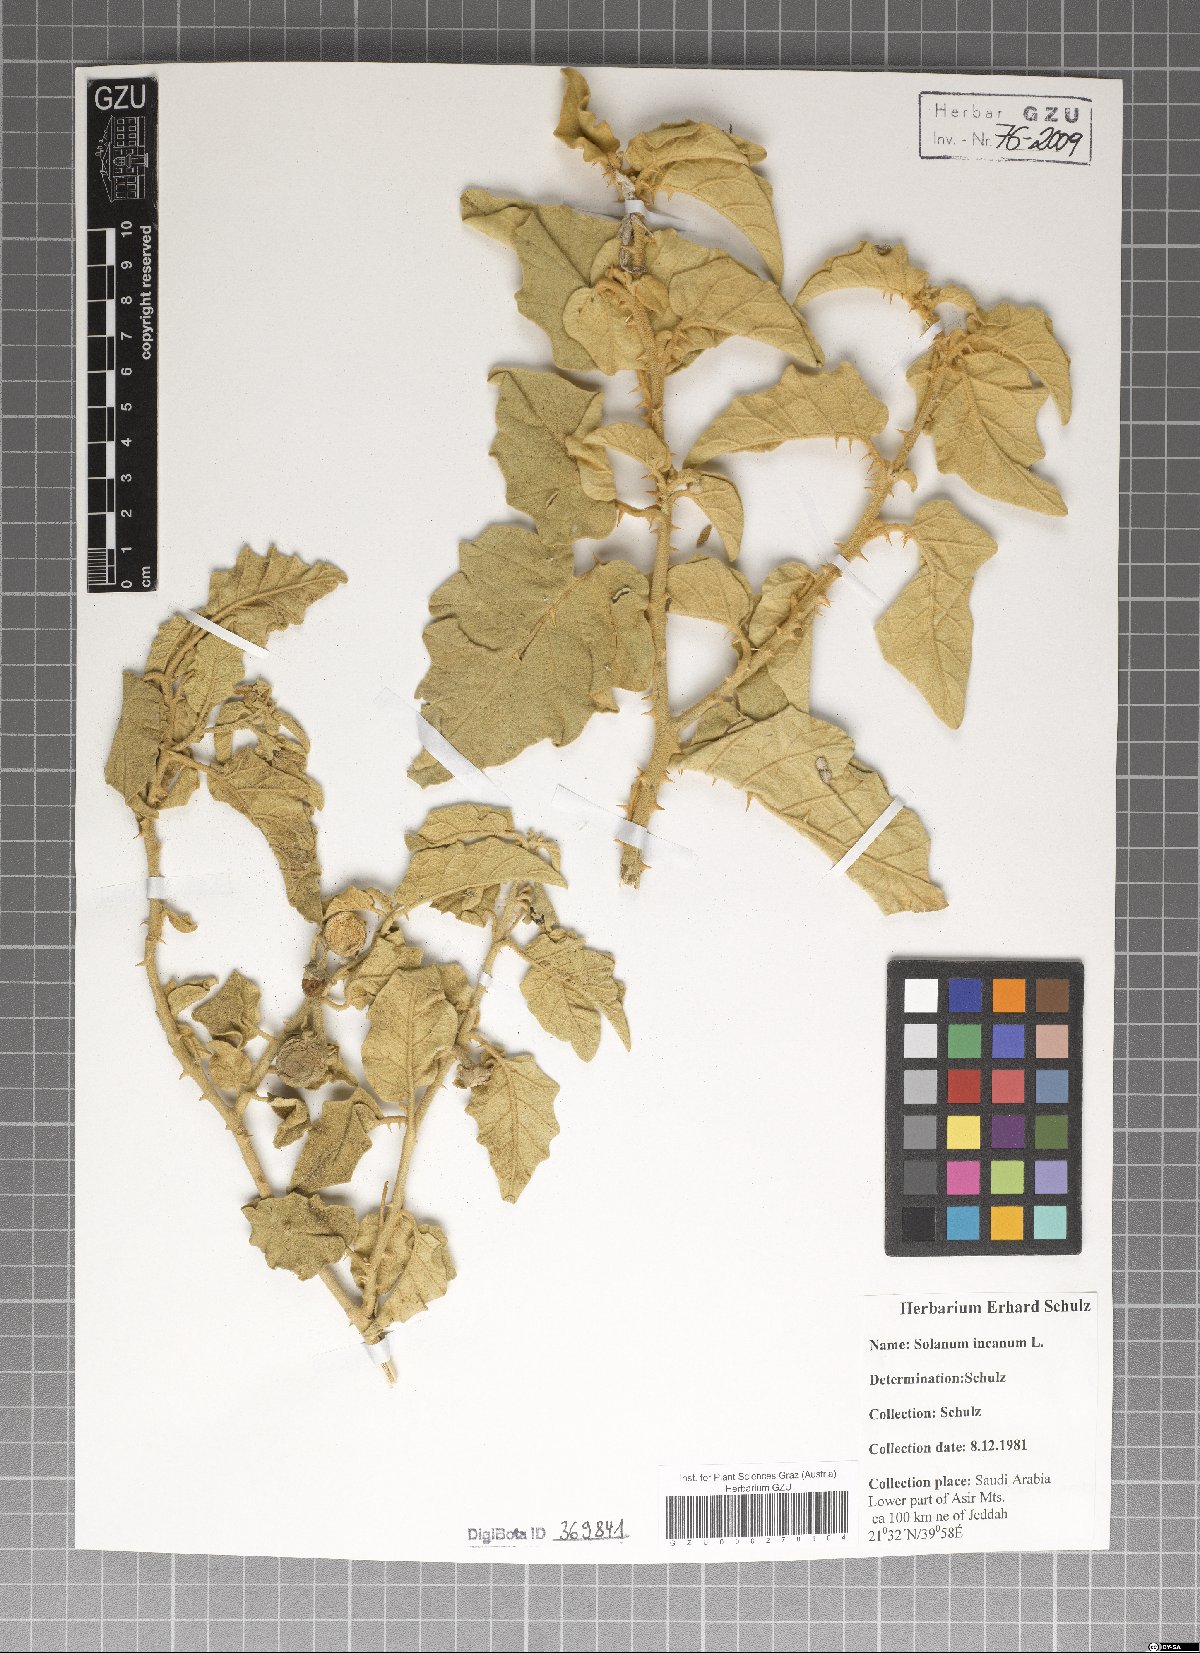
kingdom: Plantae
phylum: Tracheophyta
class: Magnoliopsida
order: Solanales
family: Solanaceae
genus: Solanum
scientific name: Solanum incanum
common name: Bitter apple
